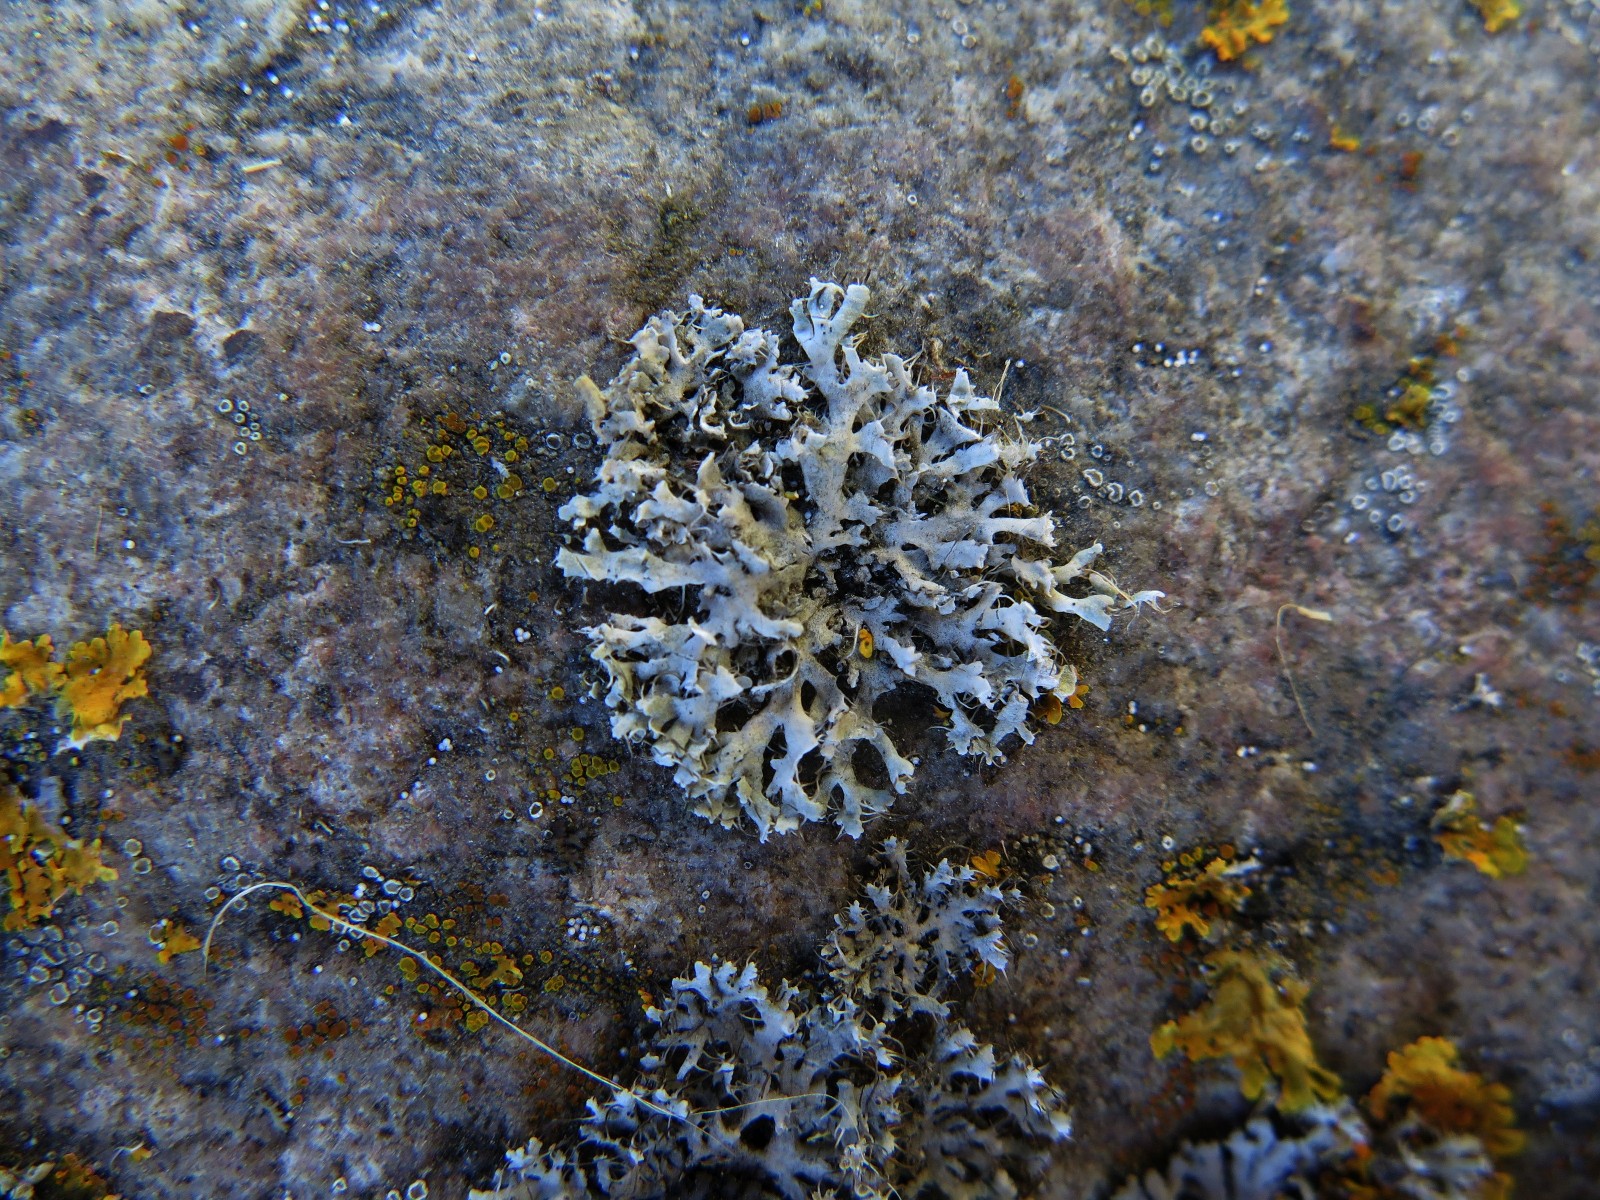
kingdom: Fungi
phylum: Ascomycota
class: Lecanoromycetes
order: Caliciales
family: Physciaceae
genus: Physcia
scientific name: Physcia tenella
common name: spæd rosetlav
